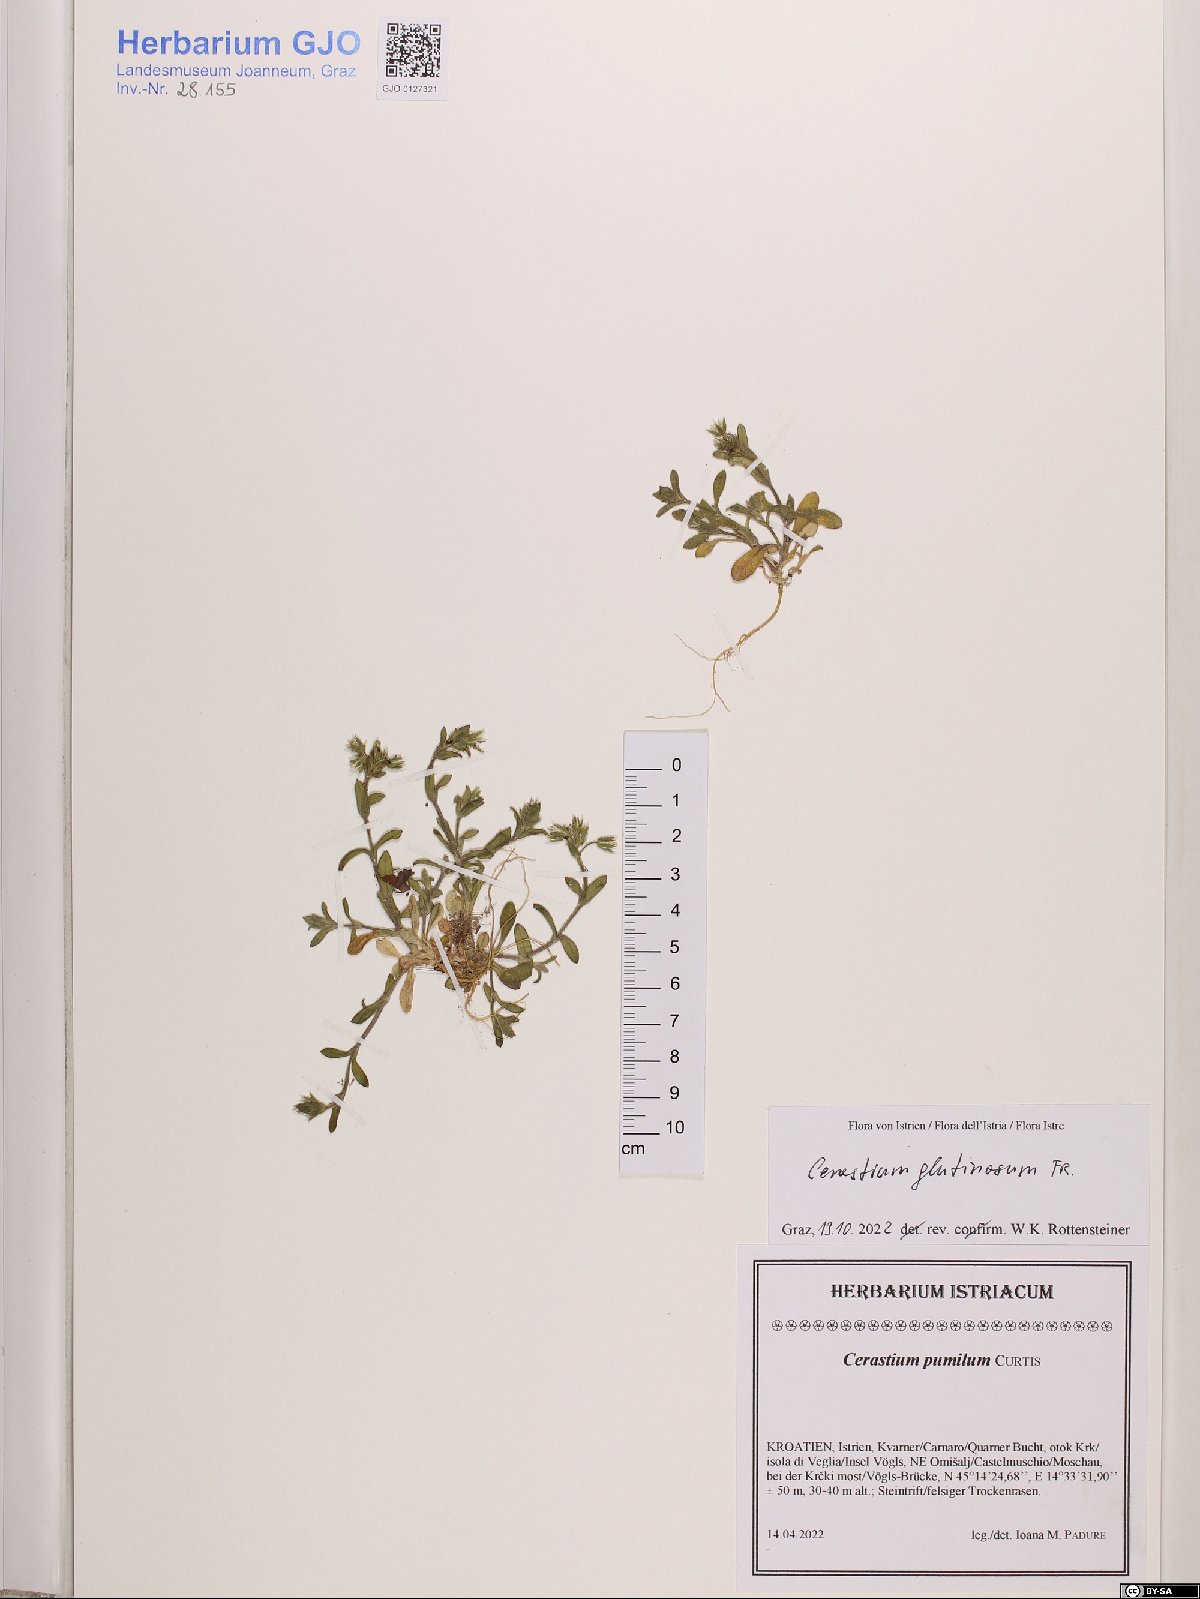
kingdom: Plantae
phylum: Tracheophyta
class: Magnoliopsida
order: Caryophyllales
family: Caryophyllaceae
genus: Cerastium
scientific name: Cerastium glutinosum
